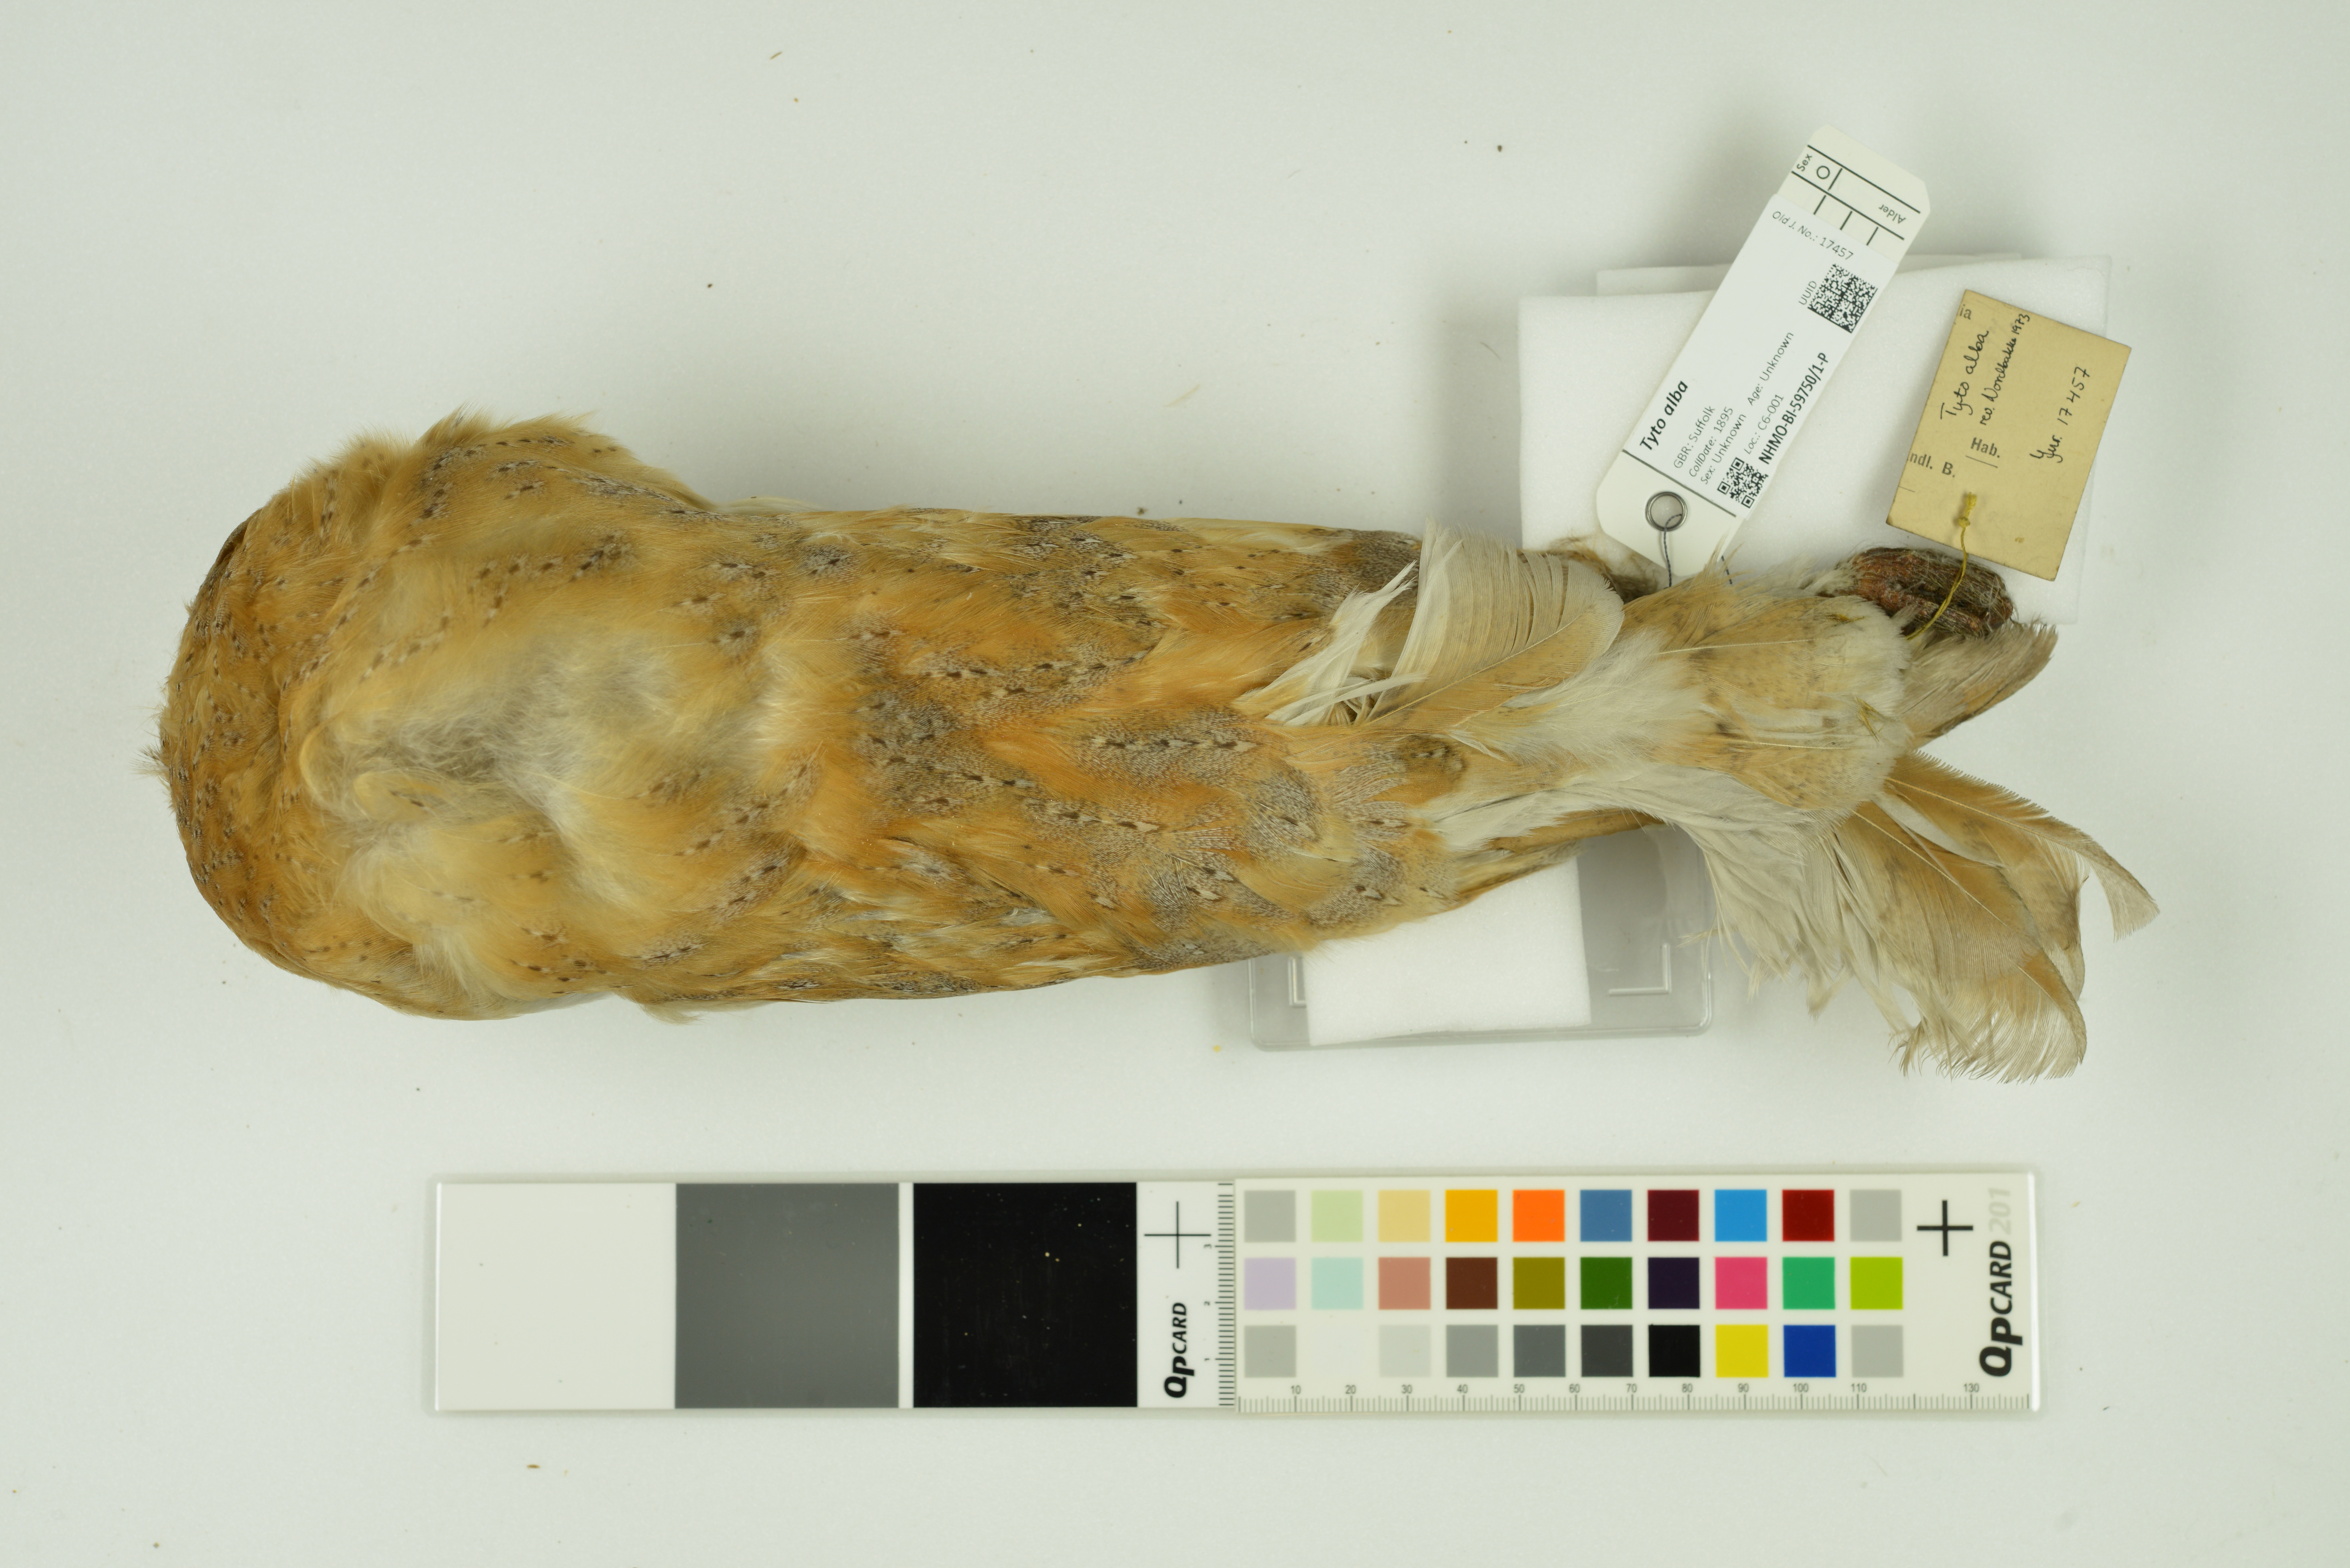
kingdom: Animalia
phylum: Chordata
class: Aves
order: Strigiformes
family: Tytonidae
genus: Tyto
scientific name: Tyto alba
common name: Barn owl
